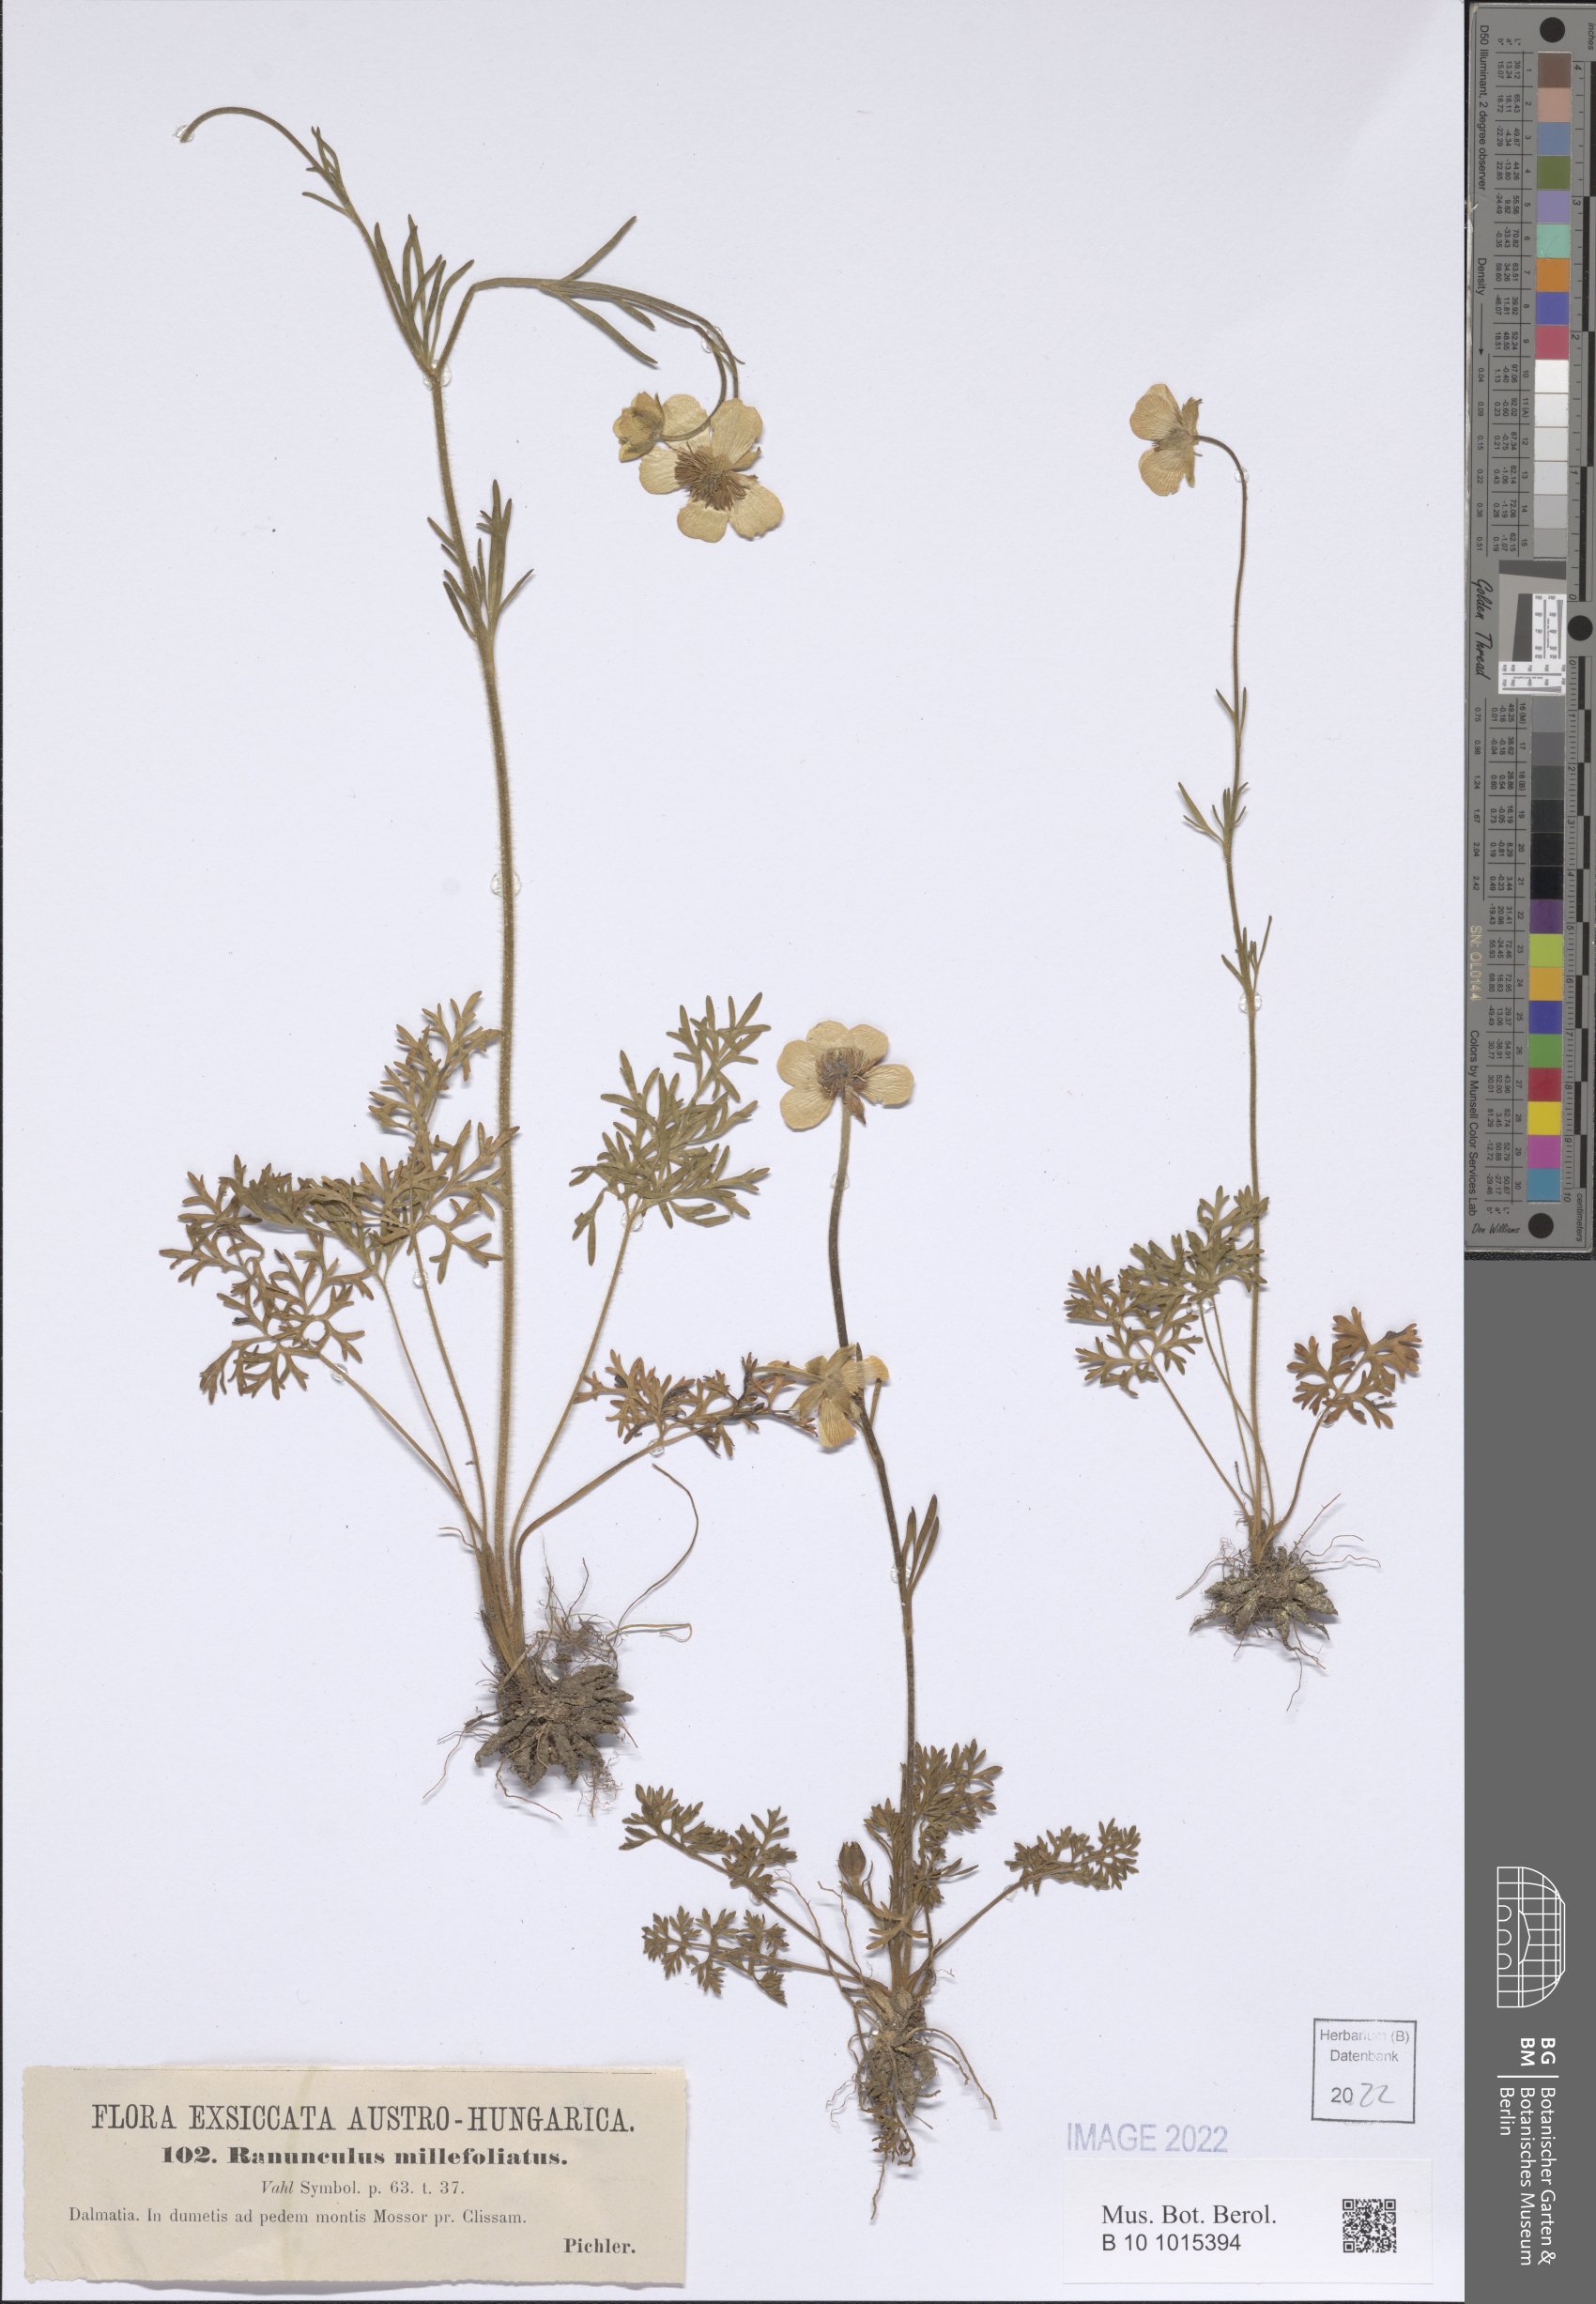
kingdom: Plantae
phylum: Tracheophyta
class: Magnoliopsida
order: Ranunculales
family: Ranunculaceae
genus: Ranunculus
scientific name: Ranunculus millefoliatus
